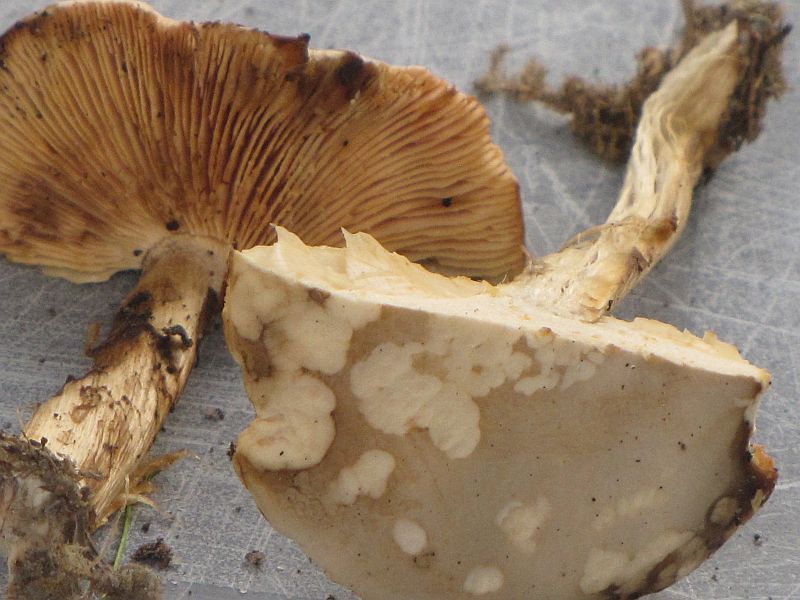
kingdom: Fungi
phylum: Basidiomycota
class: Agaricomycetes
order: Agaricales
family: Tricholomataceae
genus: Melanoleuca
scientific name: Melanoleuca cognata
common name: gyldengrå munkehat
